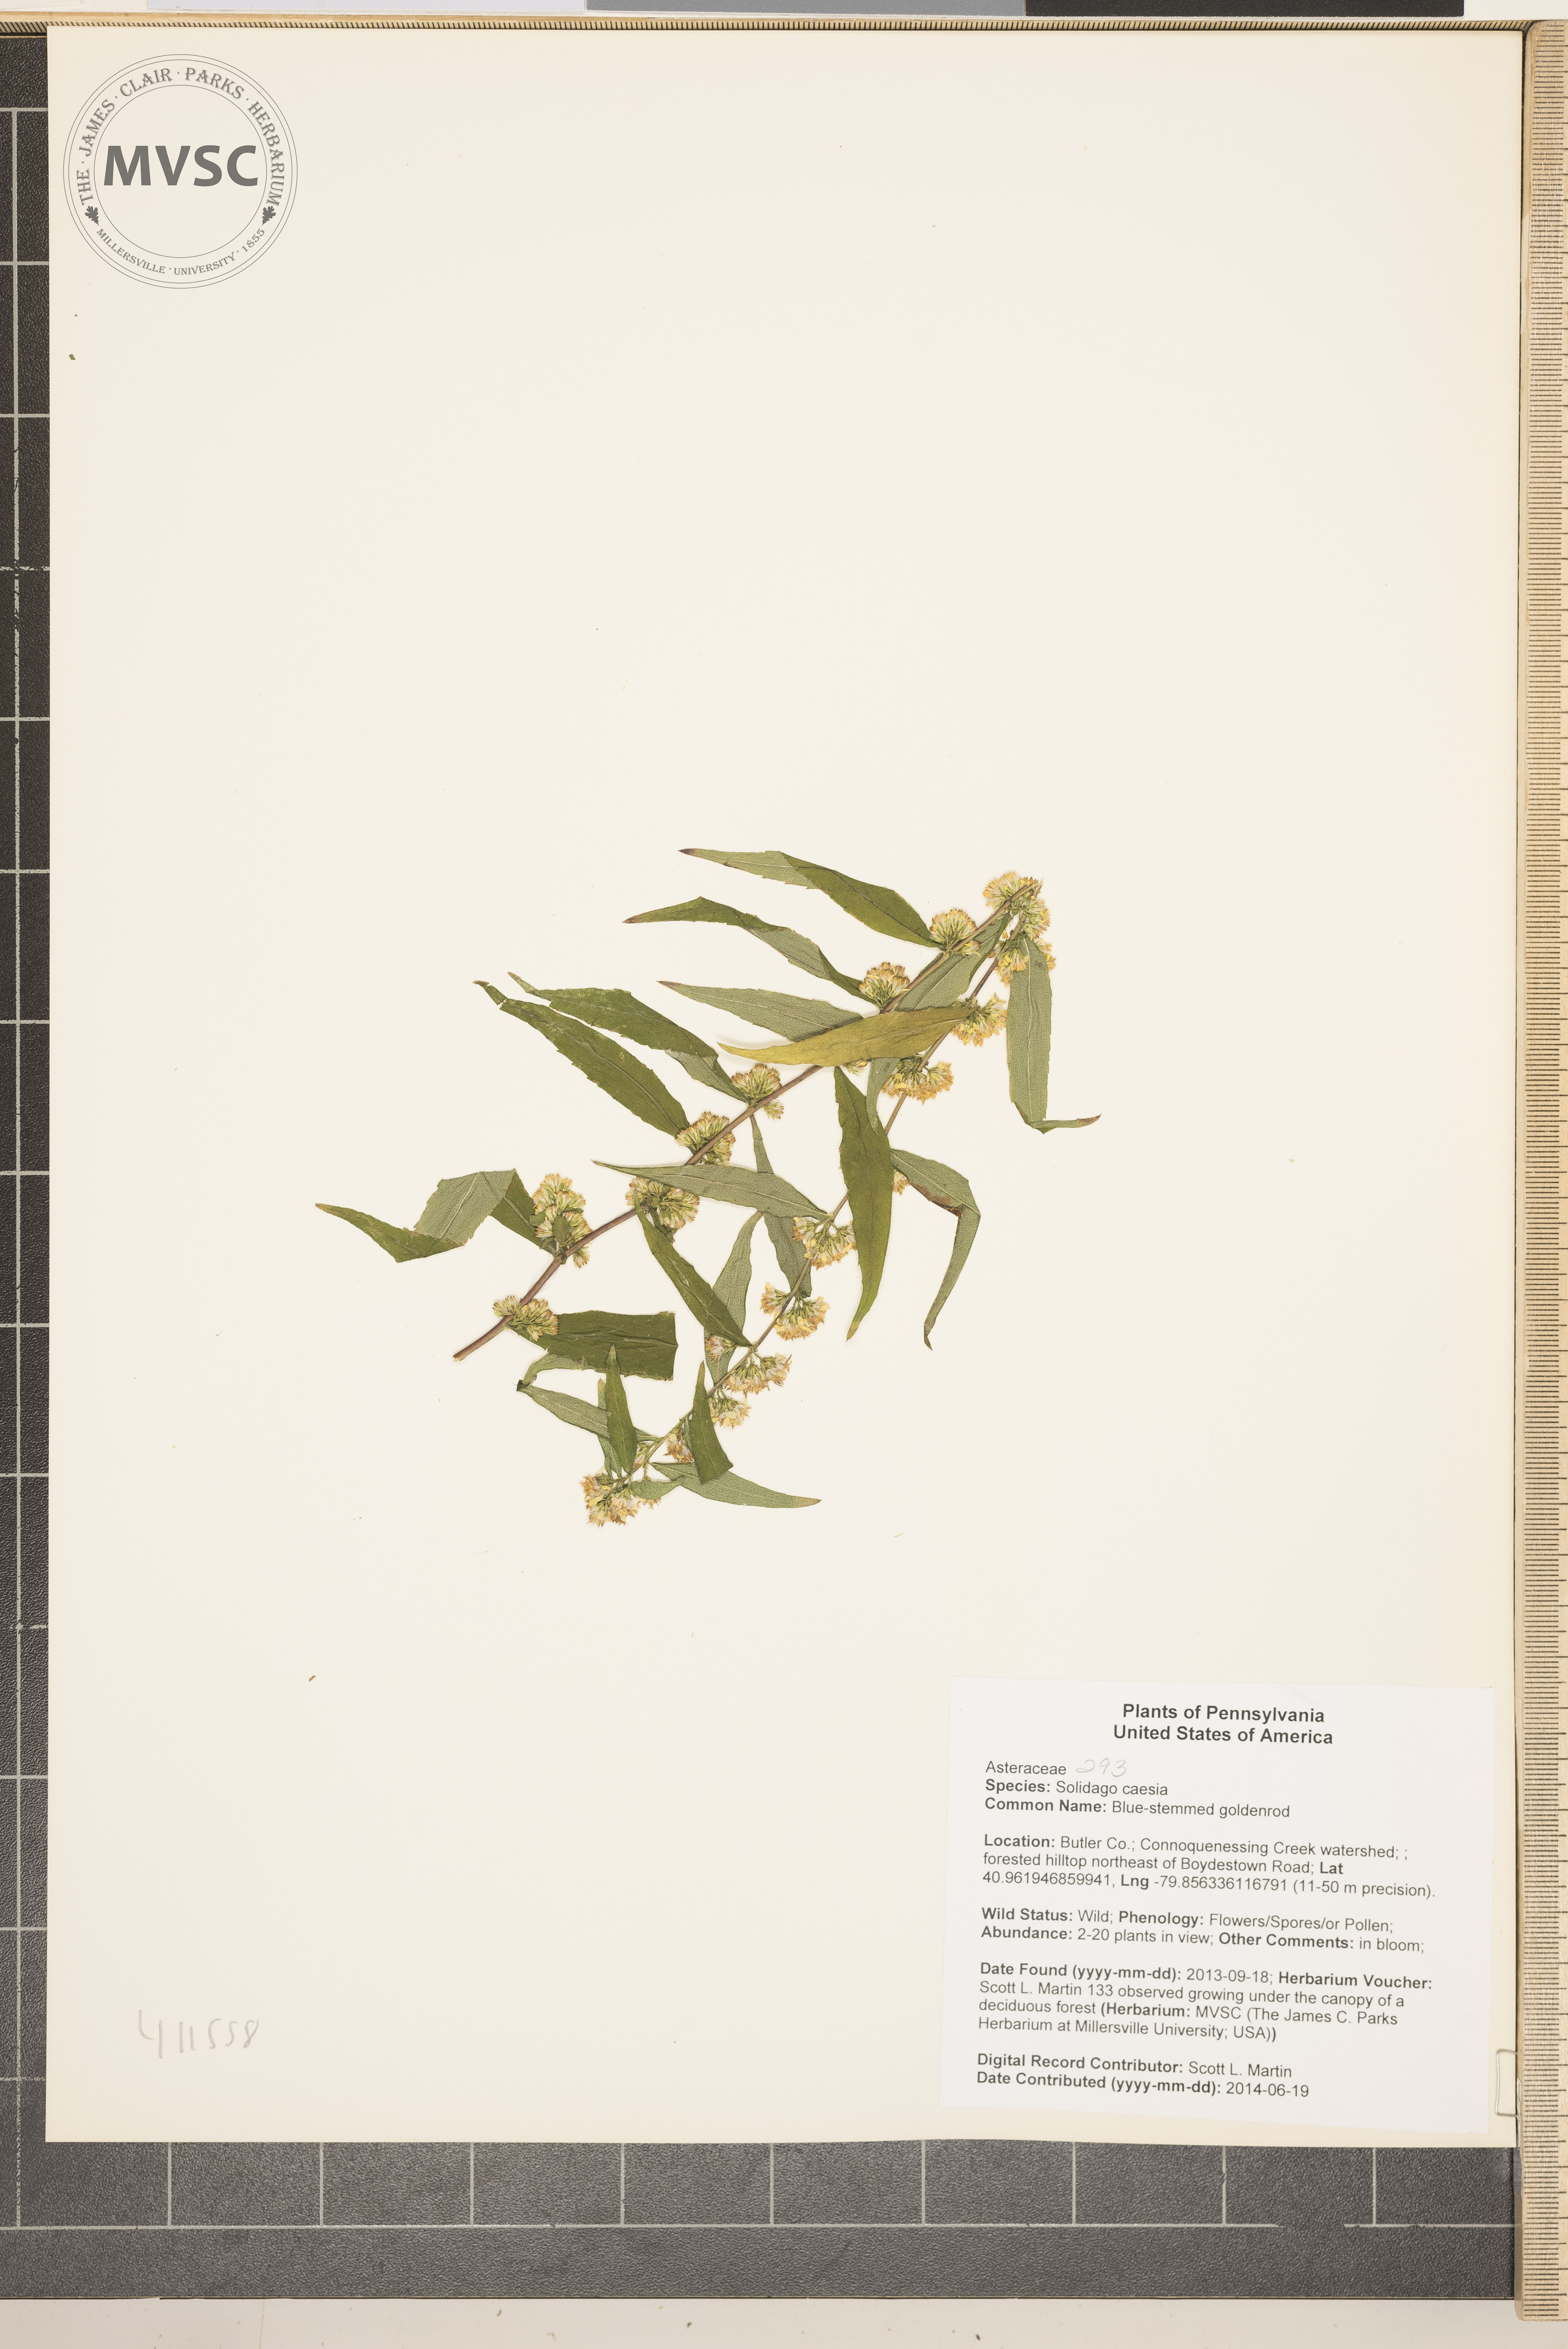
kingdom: Plantae
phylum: Tracheophyta
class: Magnoliopsida
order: Asterales
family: Asteraceae
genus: Solidago
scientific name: Solidago caesia
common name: Blue-stemmed goldenrod
